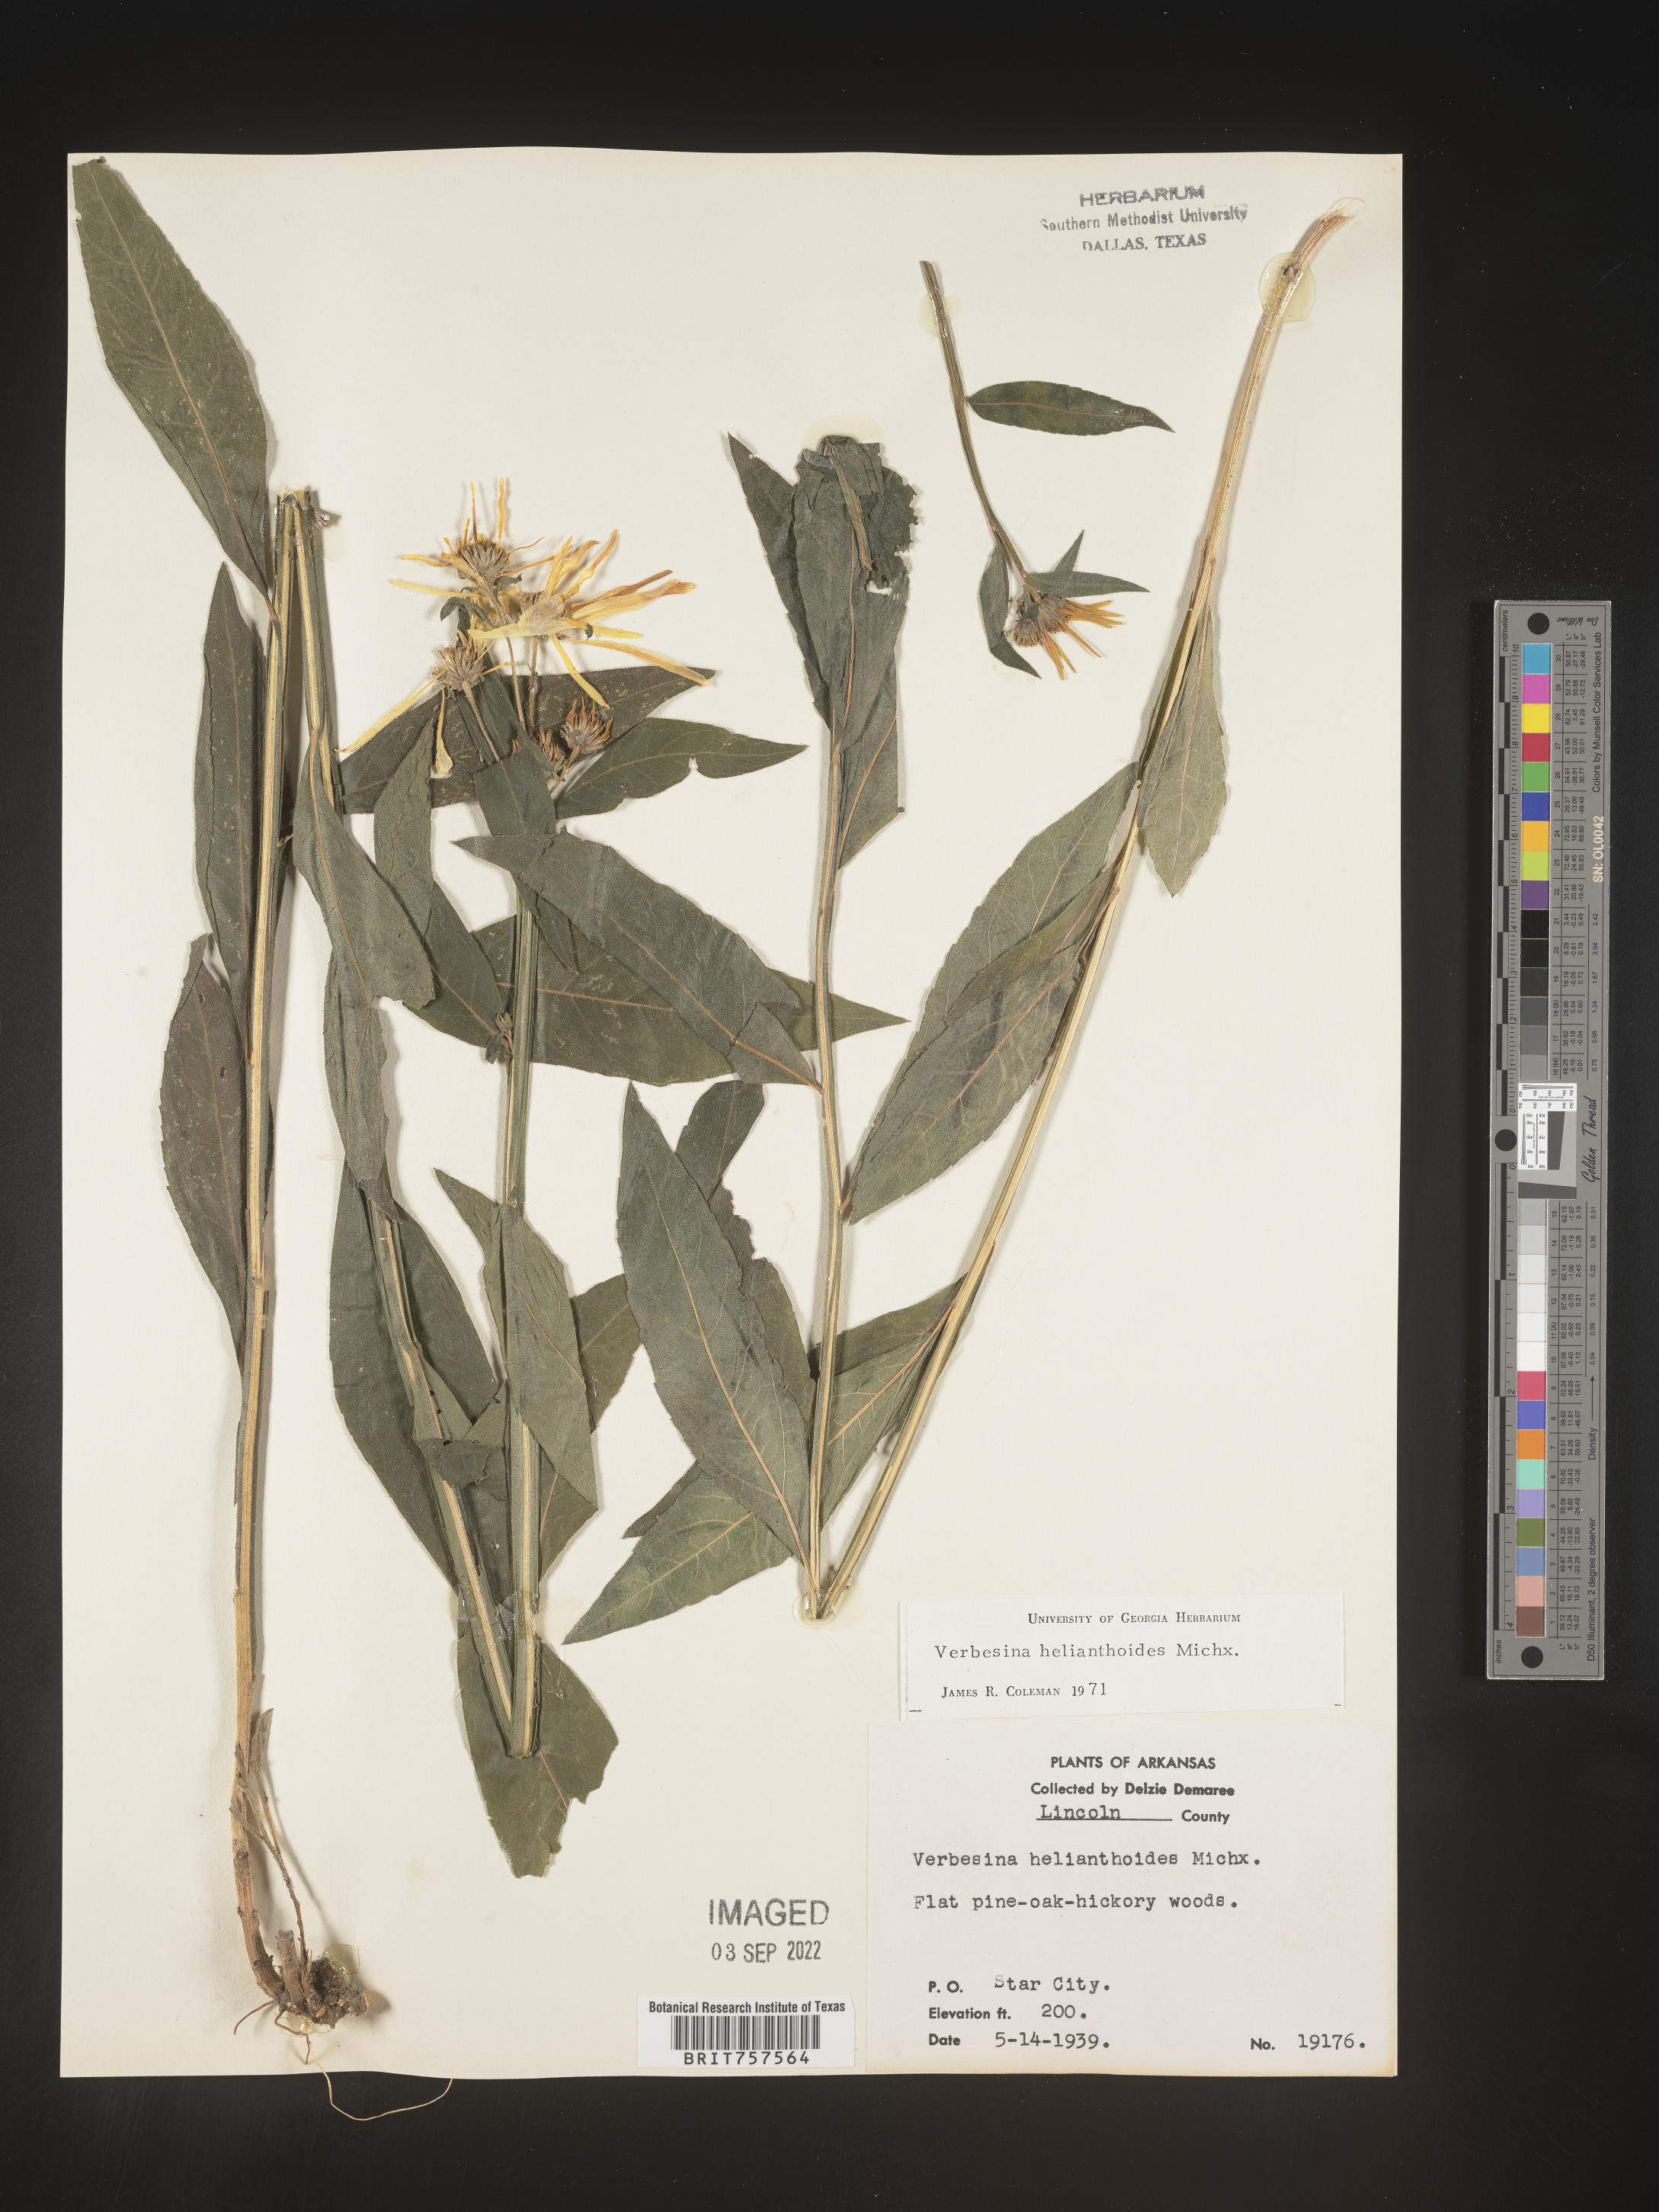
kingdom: Plantae
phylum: Tracheophyta
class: Magnoliopsida
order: Asterales
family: Asteraceae
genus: Verbesina
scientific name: Verbesina helianthoides
